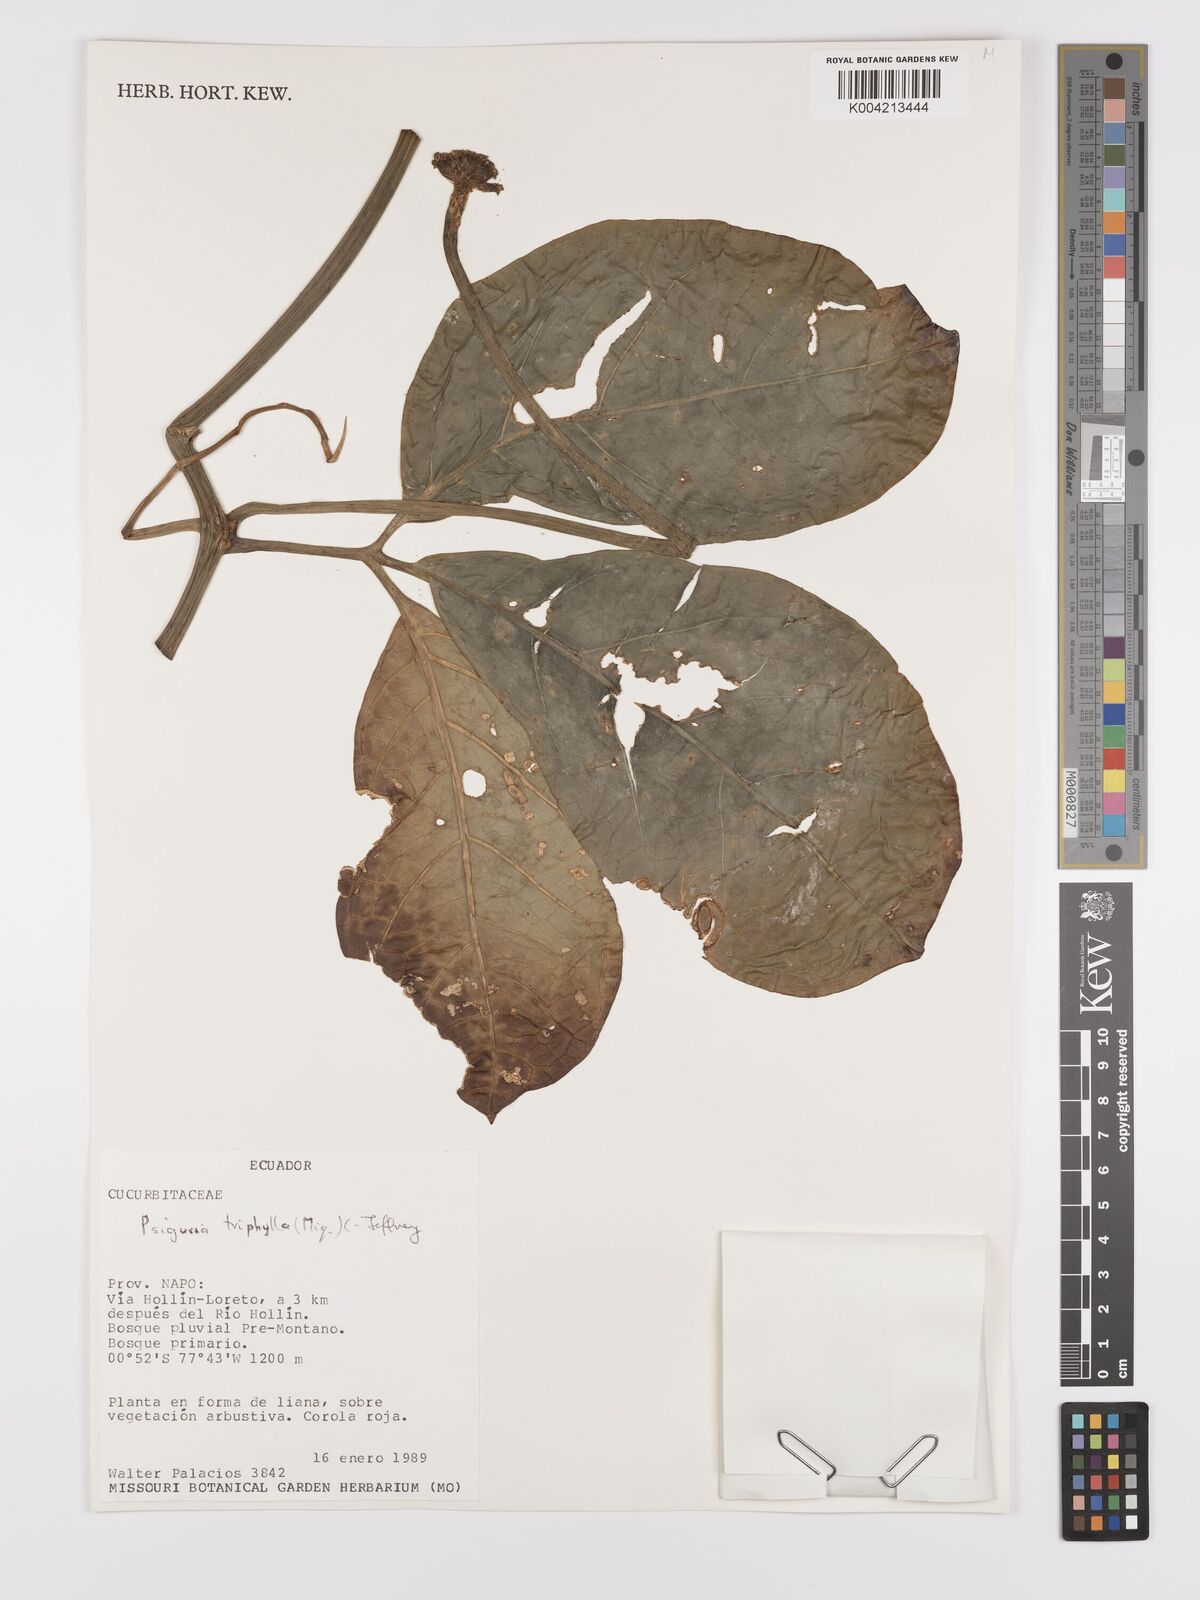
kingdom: Plantae
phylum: Tracheophyta
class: Magnoliopsida
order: Cucurbitales
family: Cucurbitaceae
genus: Psiguria
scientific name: Psiguria triphylla
